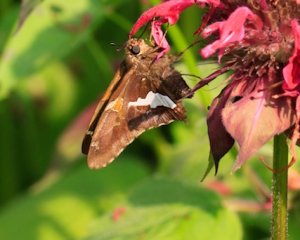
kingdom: Animalia
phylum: Arthropoda
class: Insecta
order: Lepidoptera
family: Hesperiidae
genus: Epargyreus
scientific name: Epargyreus clarus
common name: Silver-spotted Skipper
